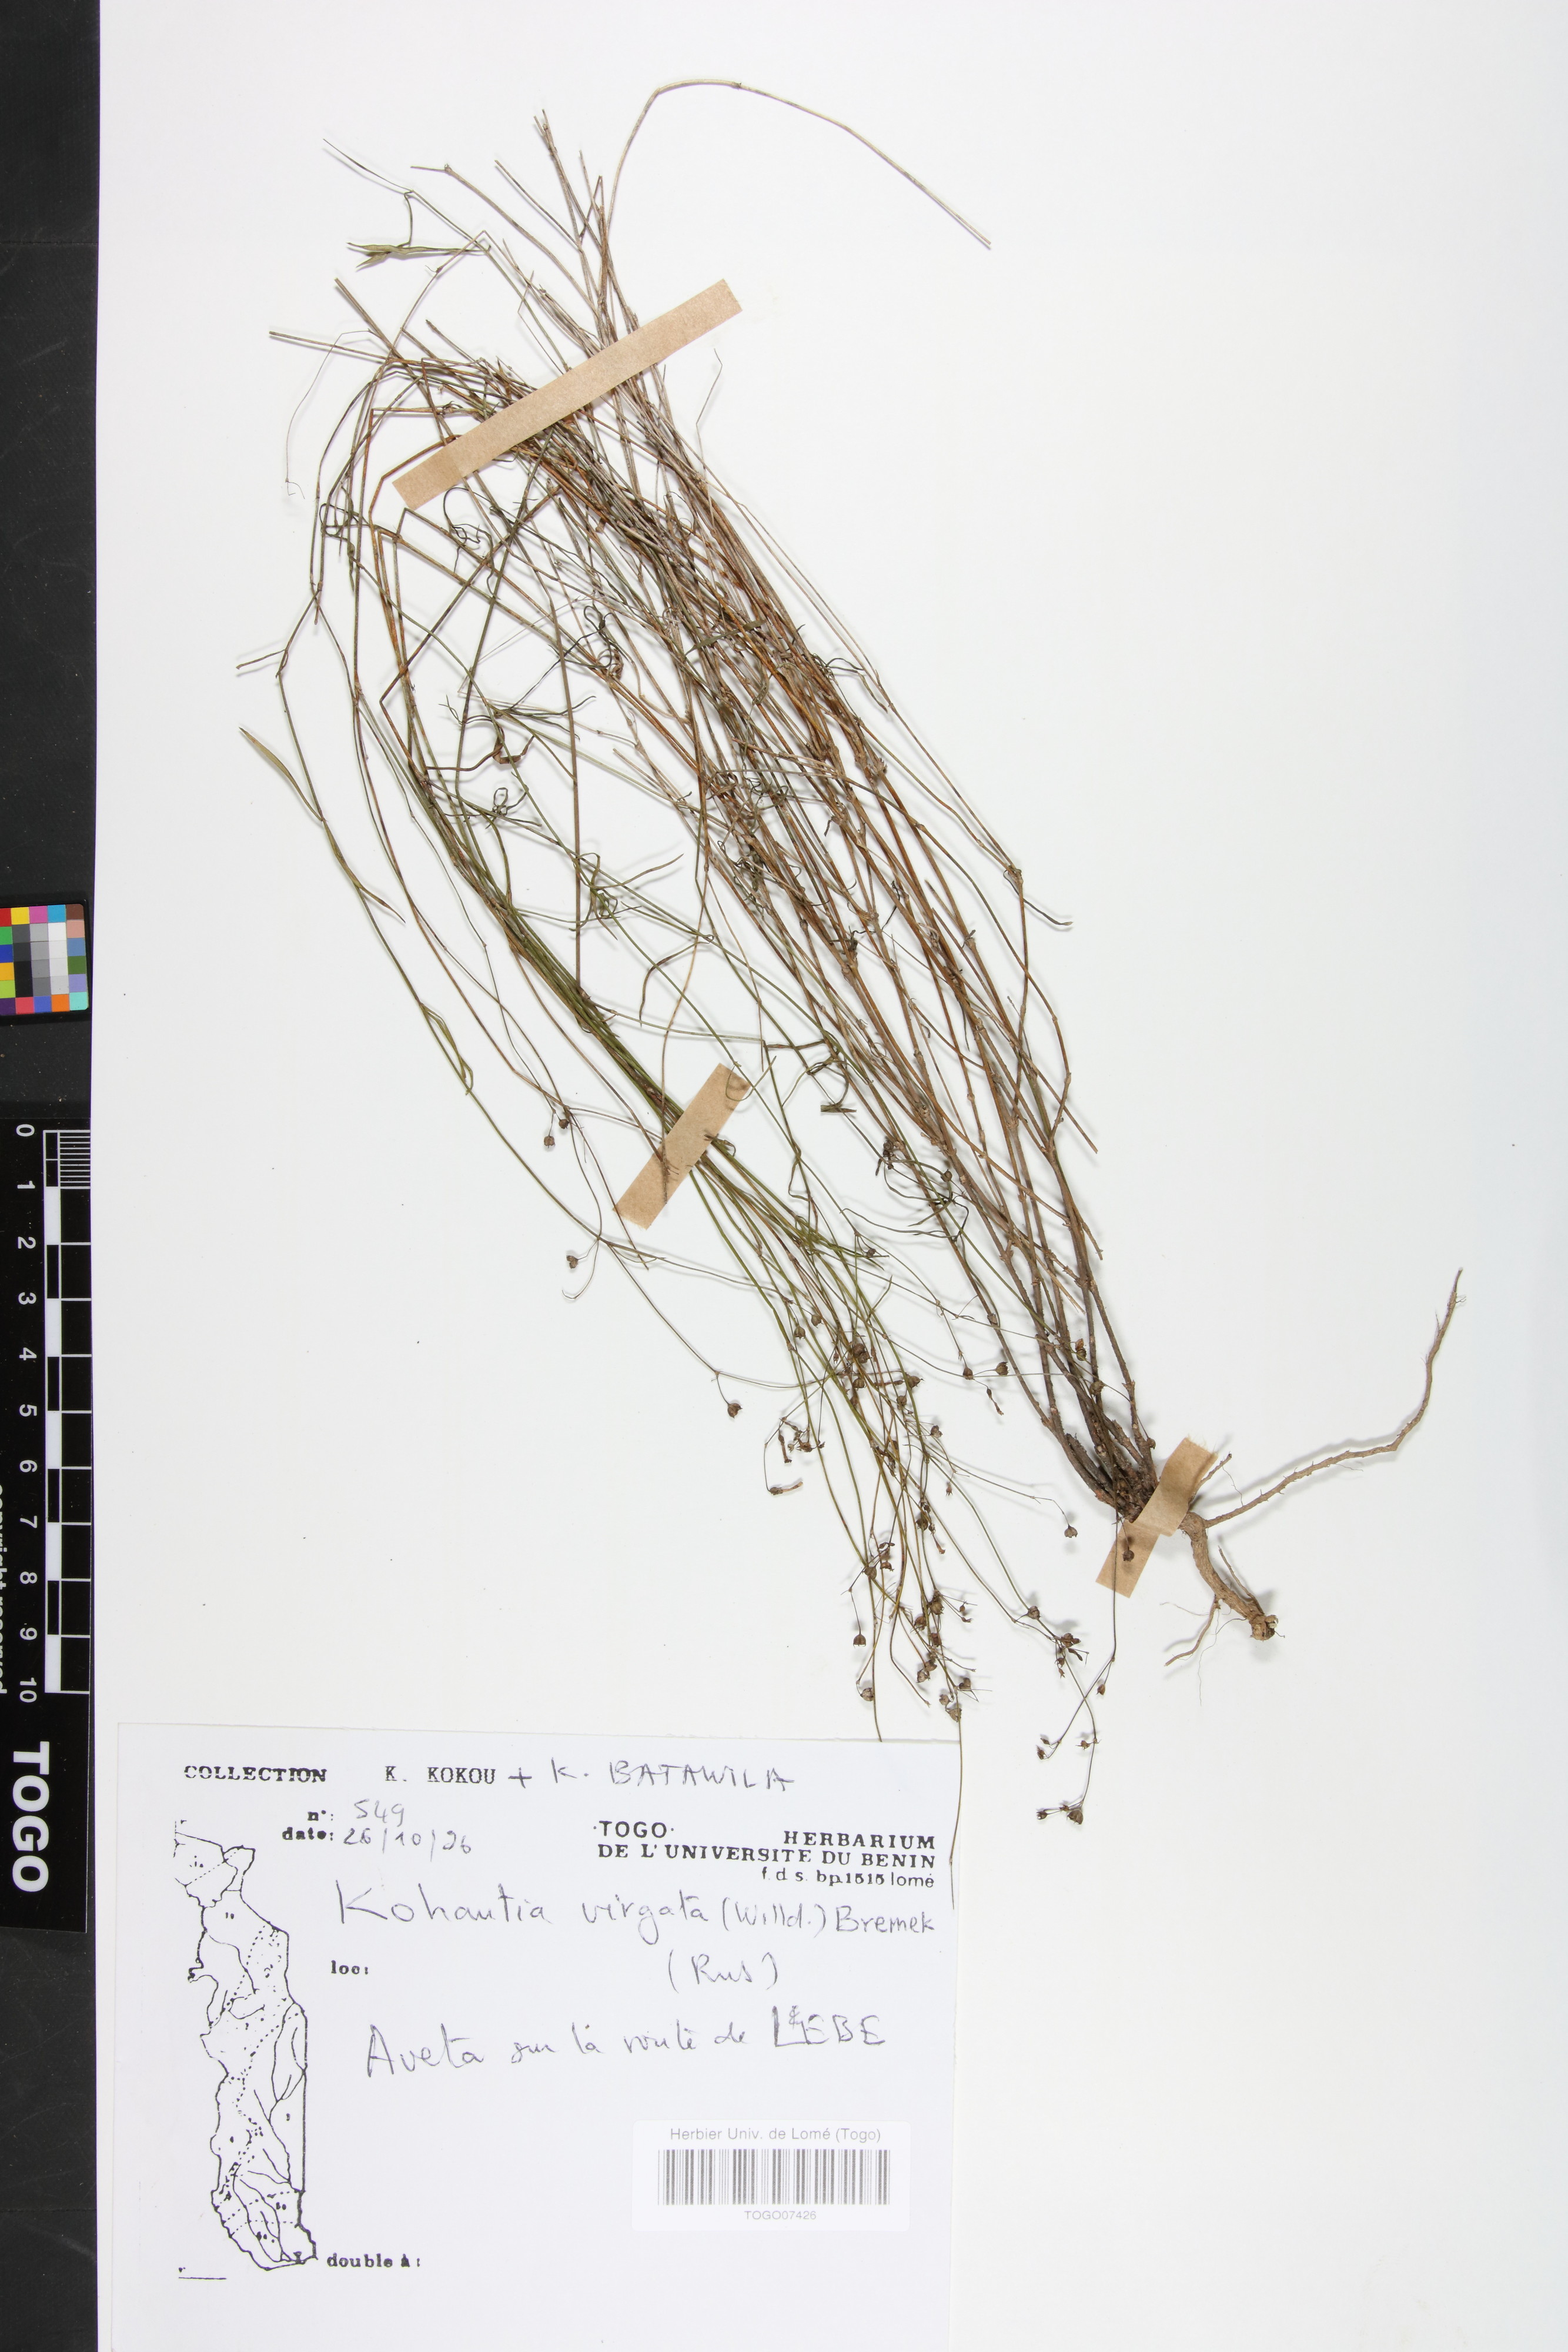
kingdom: Plantae
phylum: Tracheophyta
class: Magnoliopsida
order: Gentianales
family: Rubiaceae
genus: Cordylostigma
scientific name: Cordylostigma virgatum
